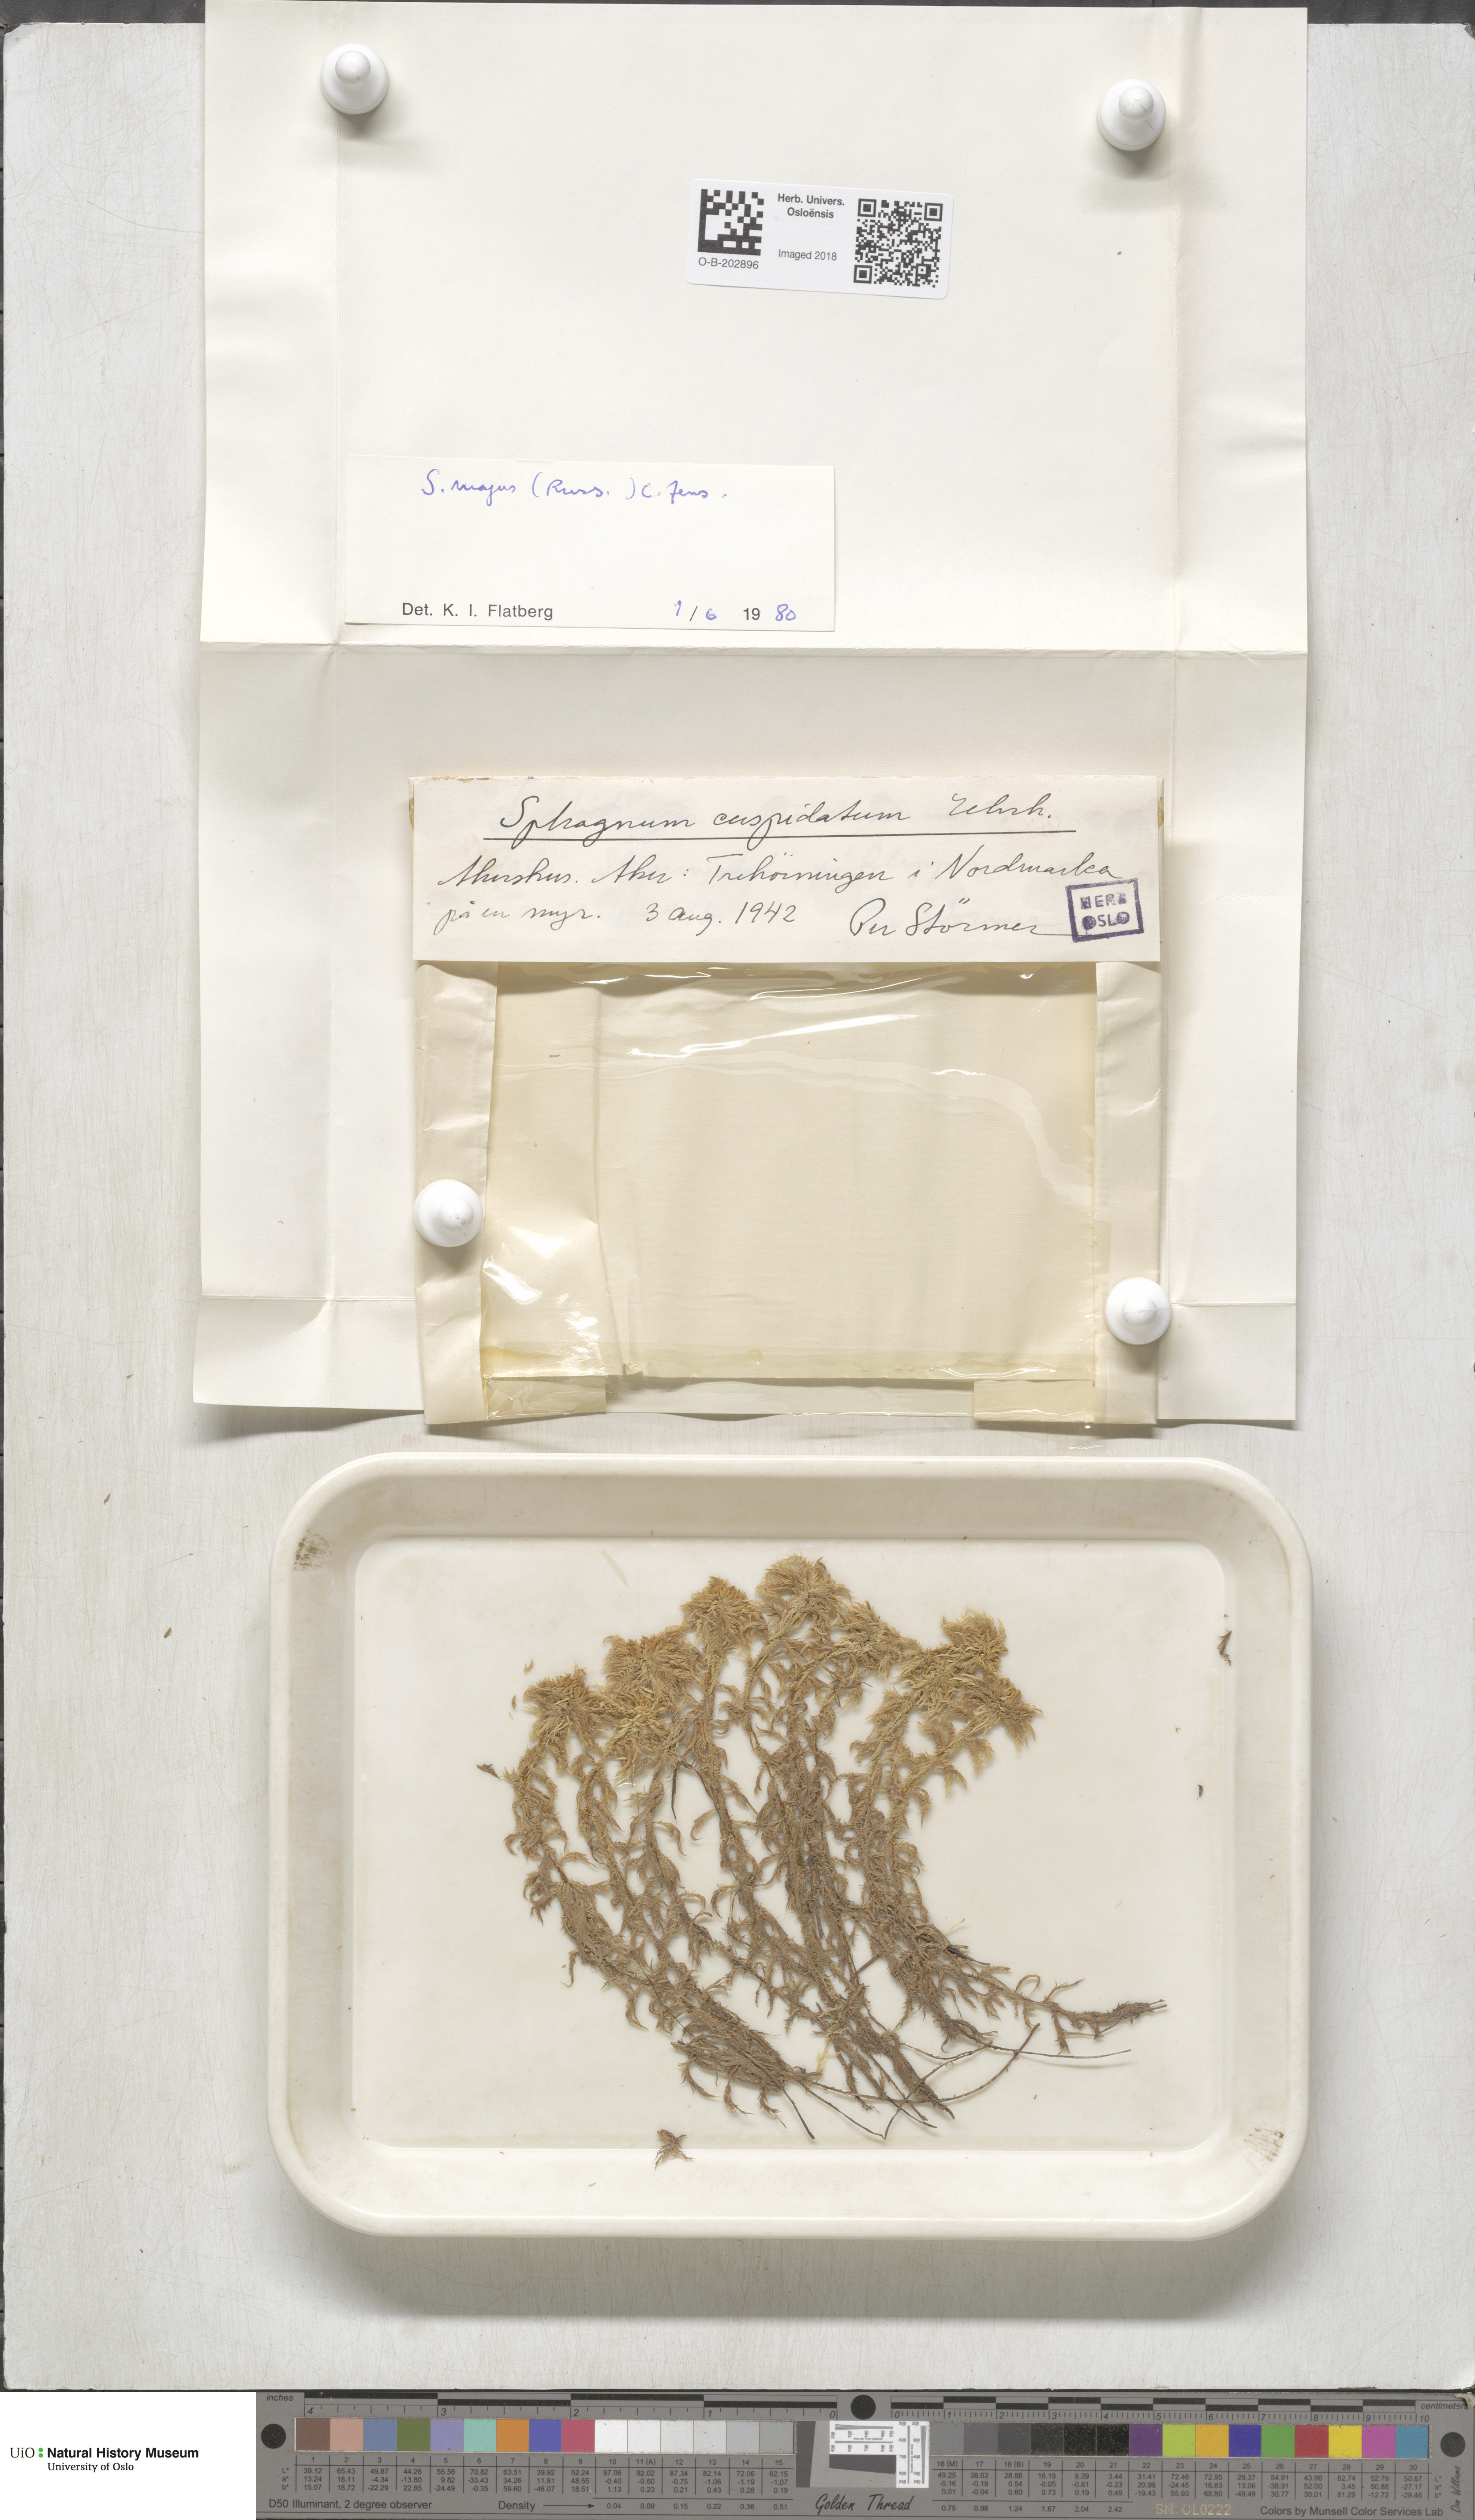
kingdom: Plantae
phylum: Bryophyta
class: Sphagnopsida
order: Sphagnales
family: Sphagnaceae
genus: Sphagnum
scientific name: Sphagnum majus
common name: Olive bog-moss
